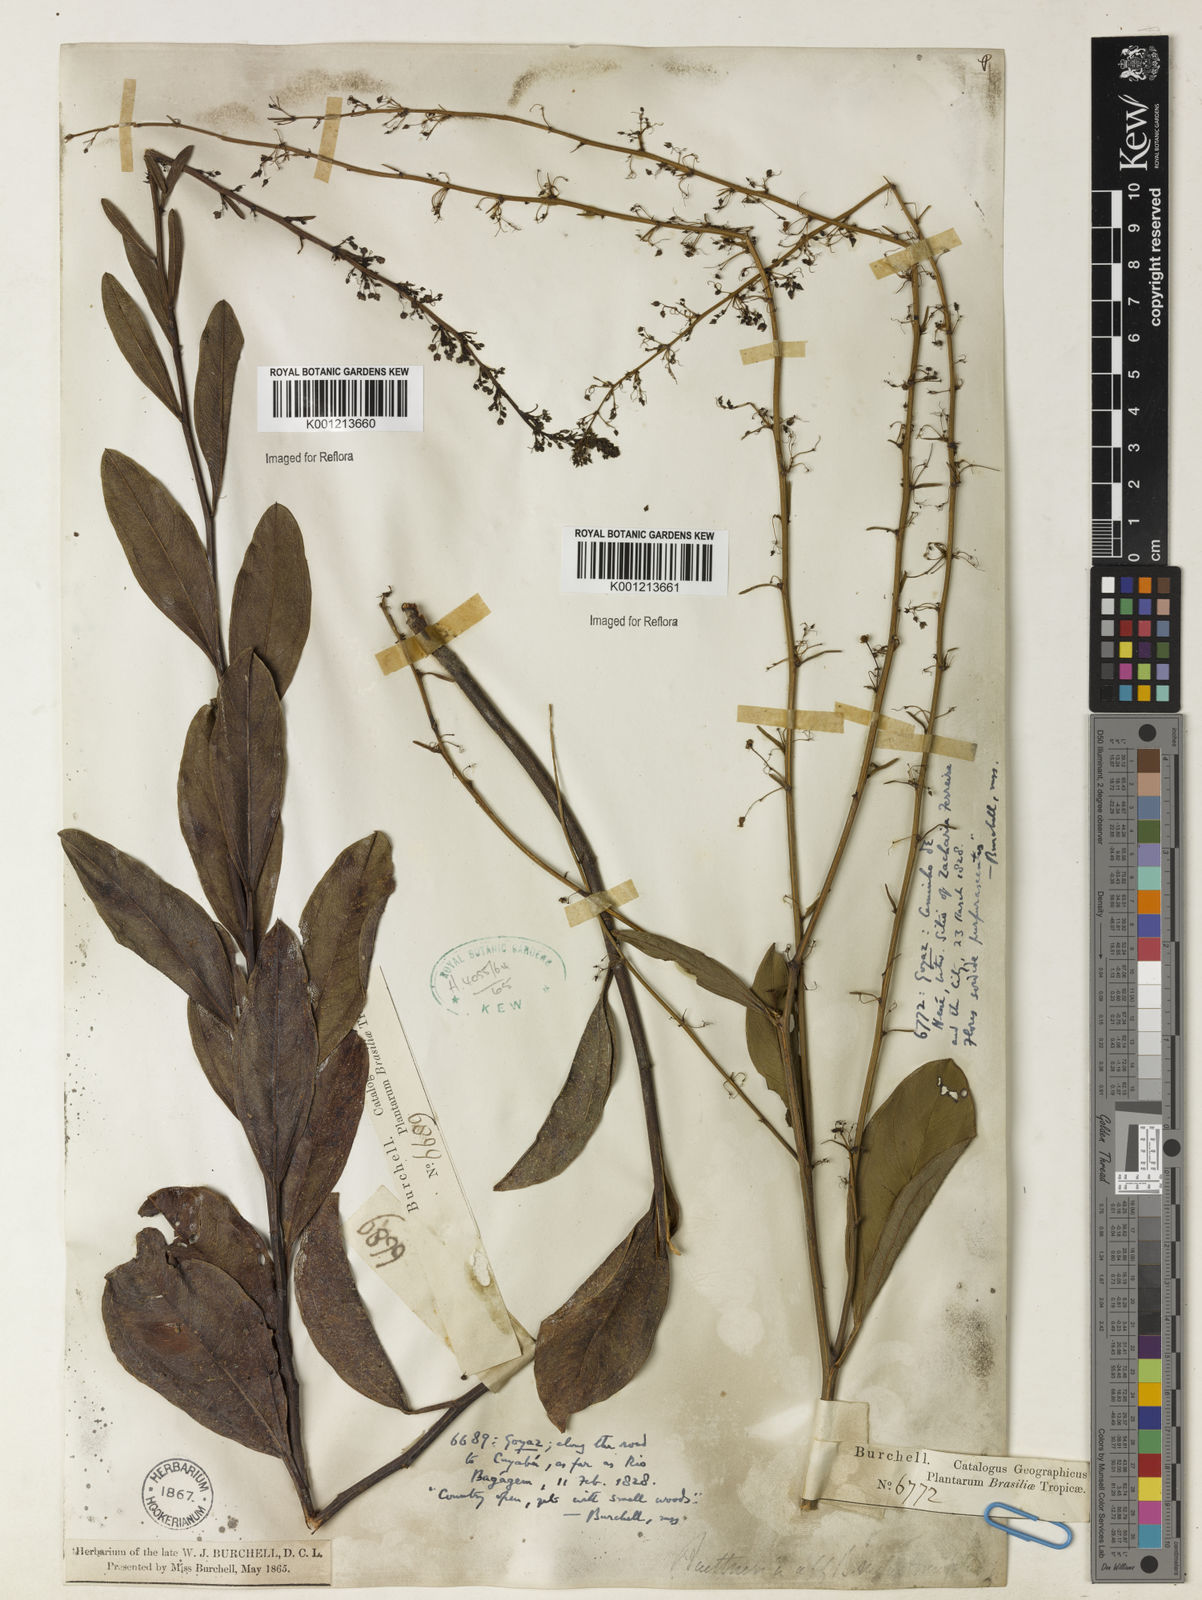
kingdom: Plantae
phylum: Tracheophyta
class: Magnoliopsida
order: Malvales
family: Malvaceae
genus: Byttneria
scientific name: Byttneria melastomifolia
